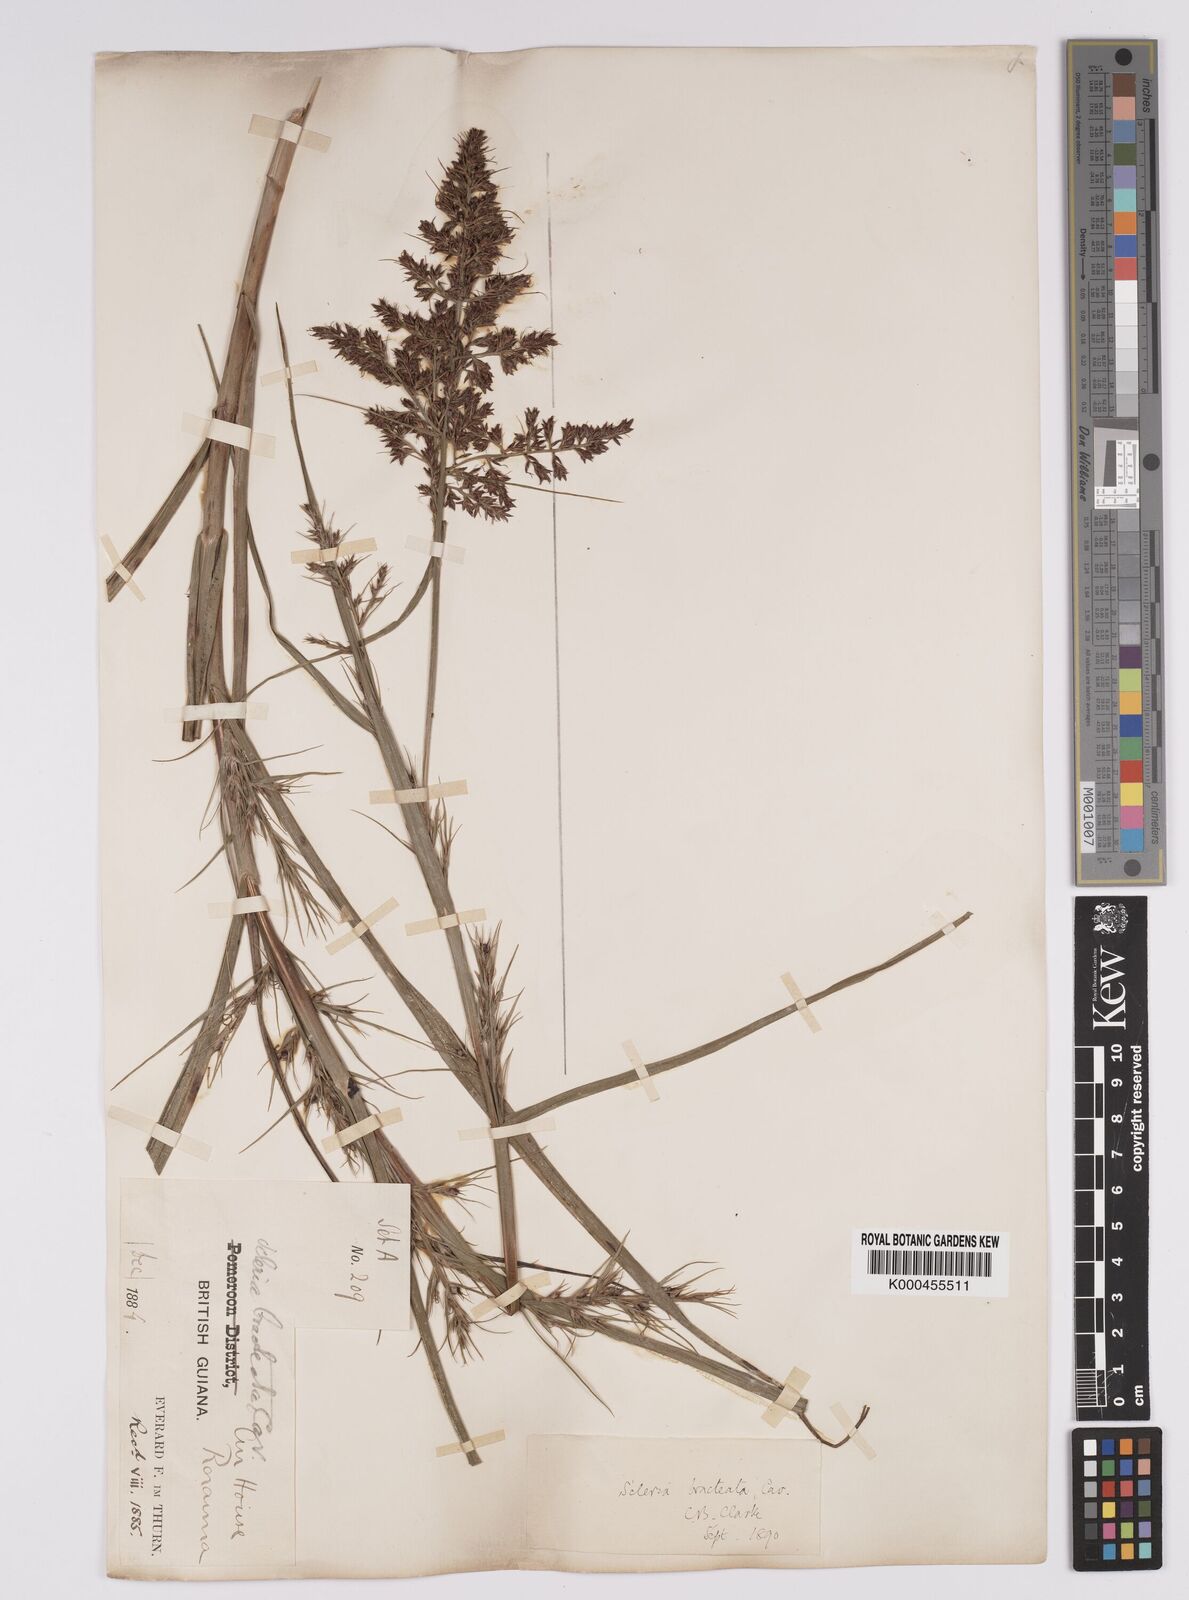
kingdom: Plantae
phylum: Tracheophyta
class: Liliopsida
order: Poales
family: Cyperaceae
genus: Scleria
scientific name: Scleria bracteata
